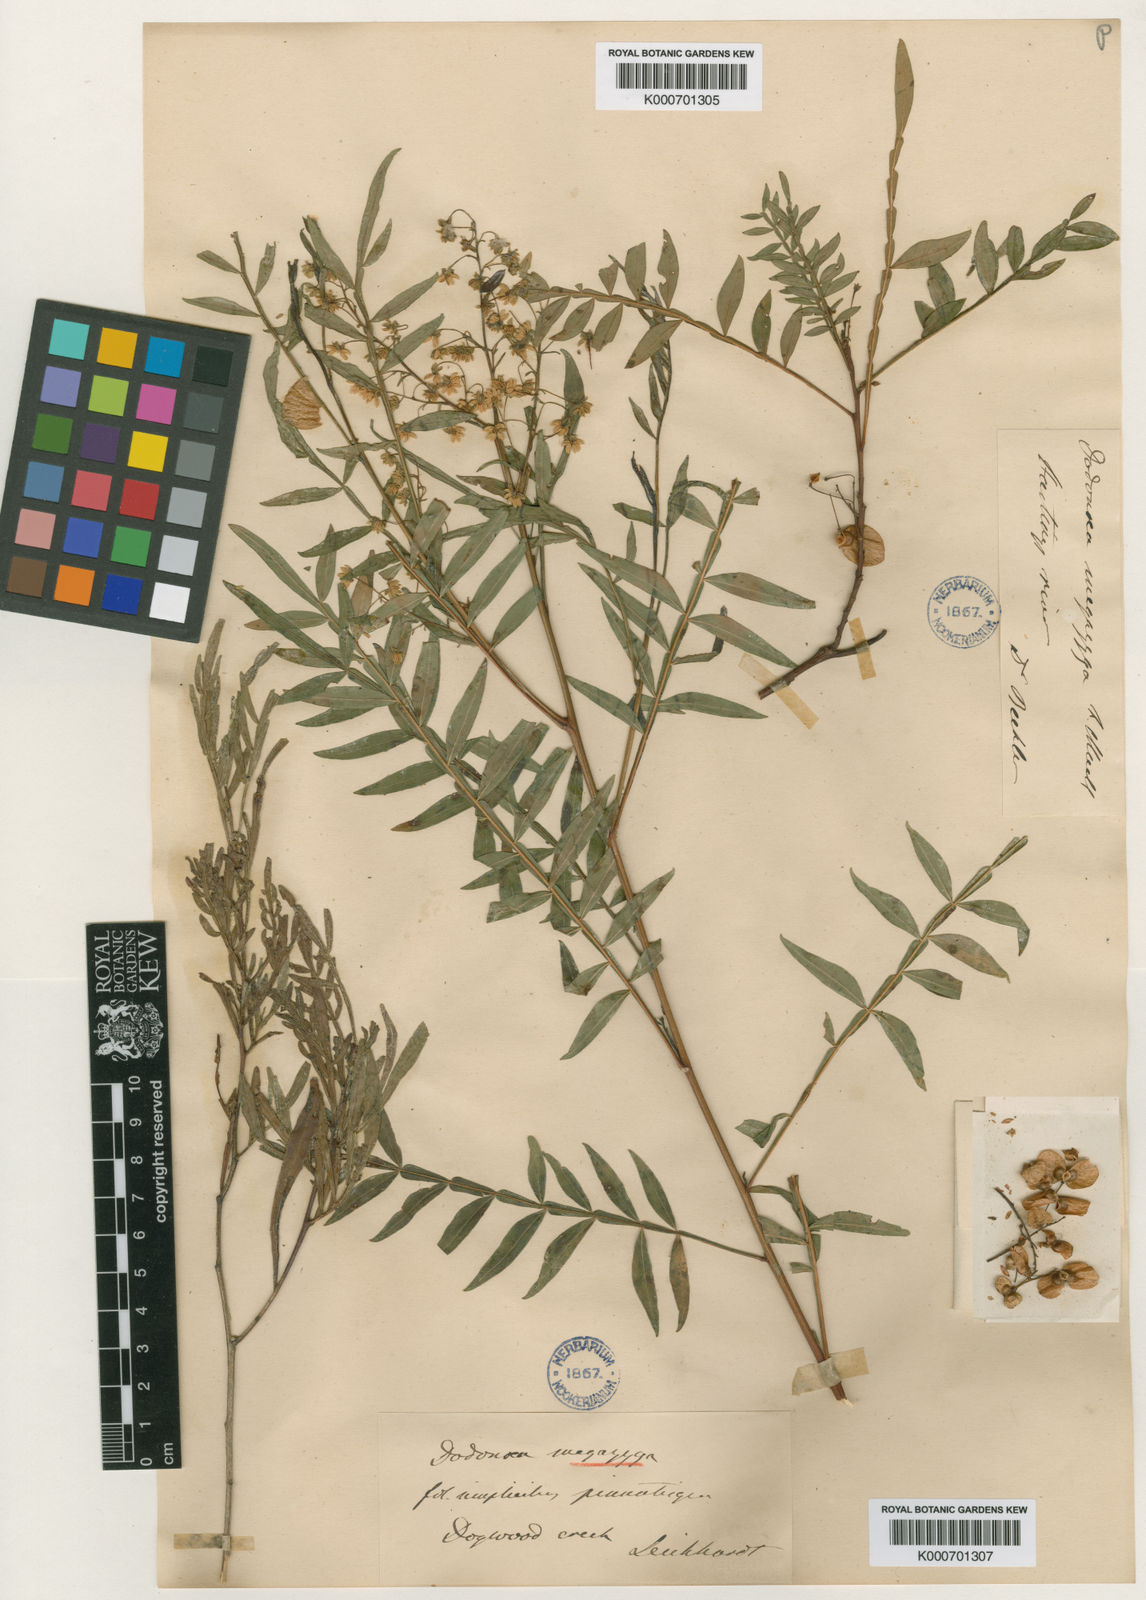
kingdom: Plantae
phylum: Tracheophyta
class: Magnoliopsida
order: Sapindales
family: Sapindaceae
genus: Dodonaea
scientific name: Dodonaea megazyga
